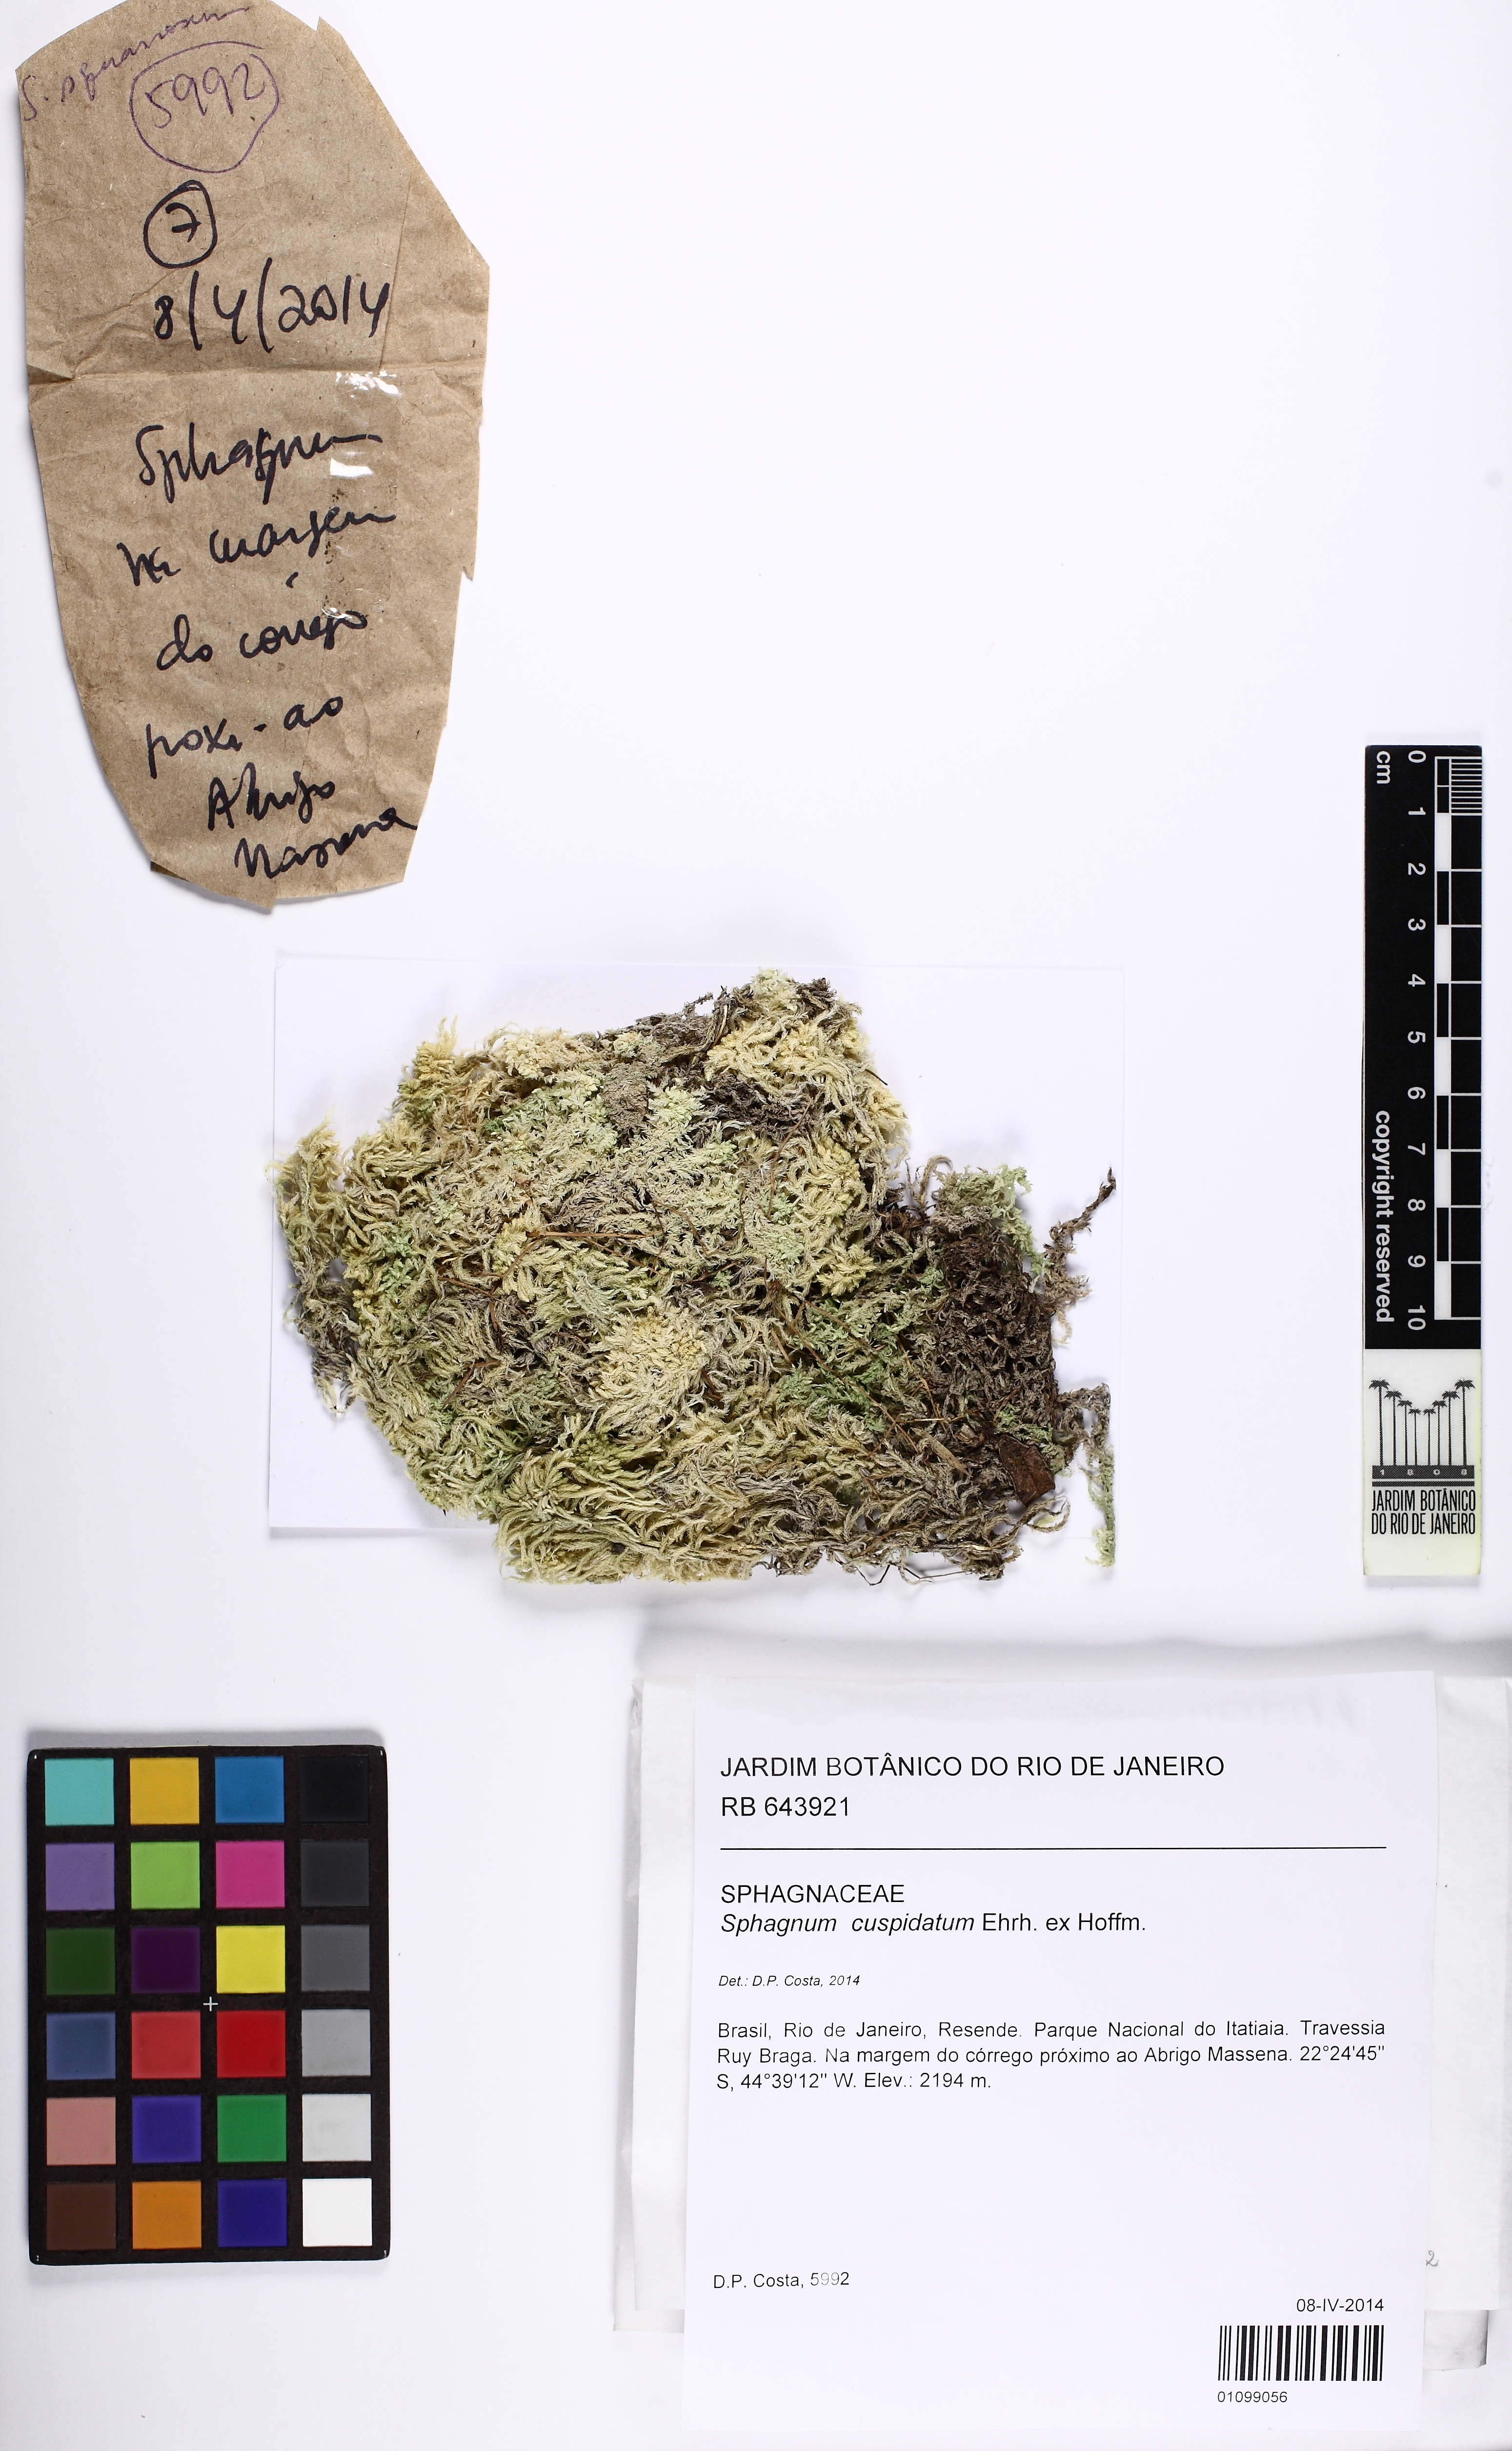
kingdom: Plantae
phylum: Bryophyta
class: Sphagnopsida
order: Sphagnales
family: Sphagnaceae
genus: Sphagnum
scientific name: Sphagnum cuspidatum
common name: Feathery peat moss
